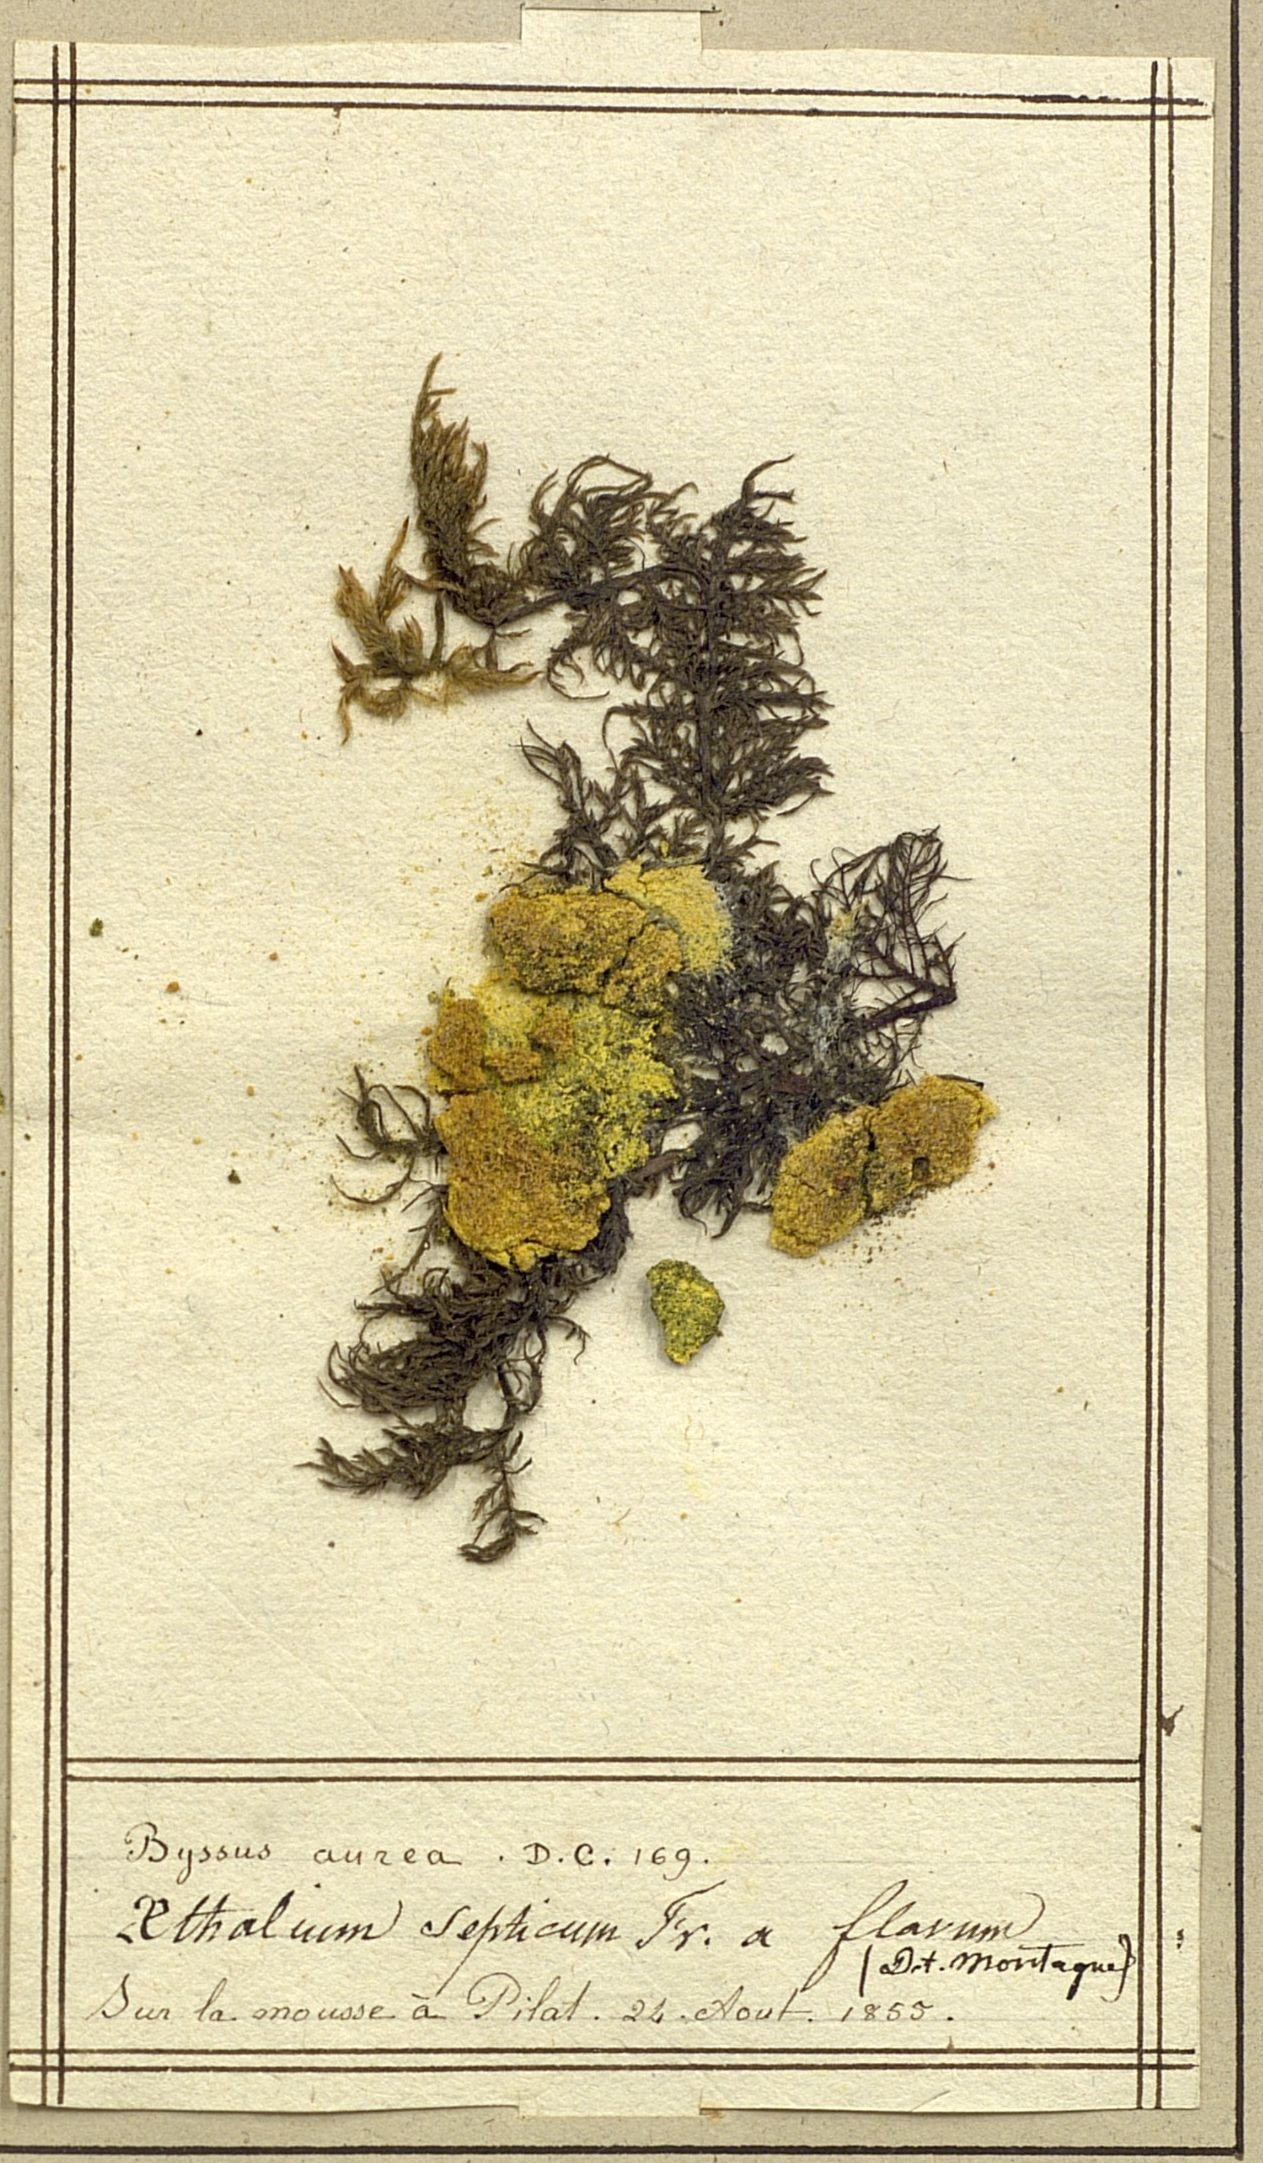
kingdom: Protozoa
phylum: Mycetozoa
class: Myxomycetes
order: Physarales
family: Physaraceae
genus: Fuligo
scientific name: Fuligo septica
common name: Dog vomit slime mold
